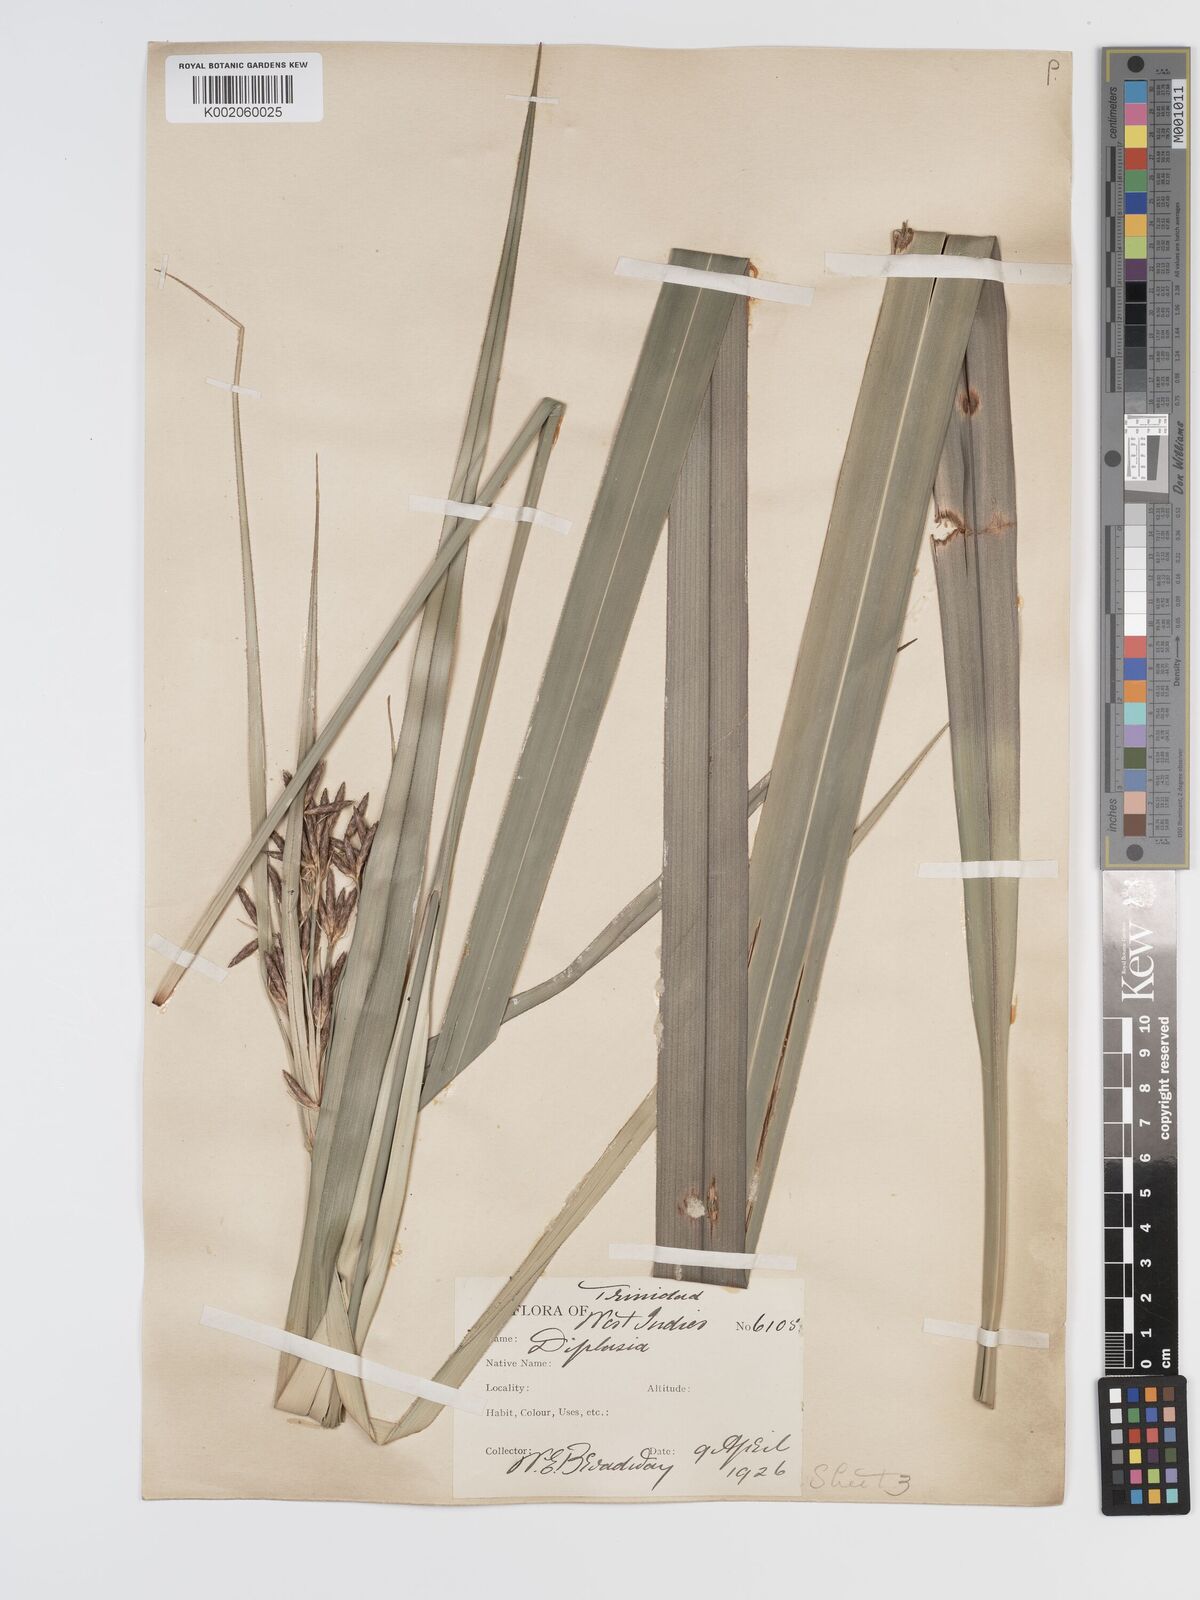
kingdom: Plantae
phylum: Tracheophyta
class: Liliopsida
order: Poales
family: Cyperaceae
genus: Diplasia
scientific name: Diplasia karatifolia
